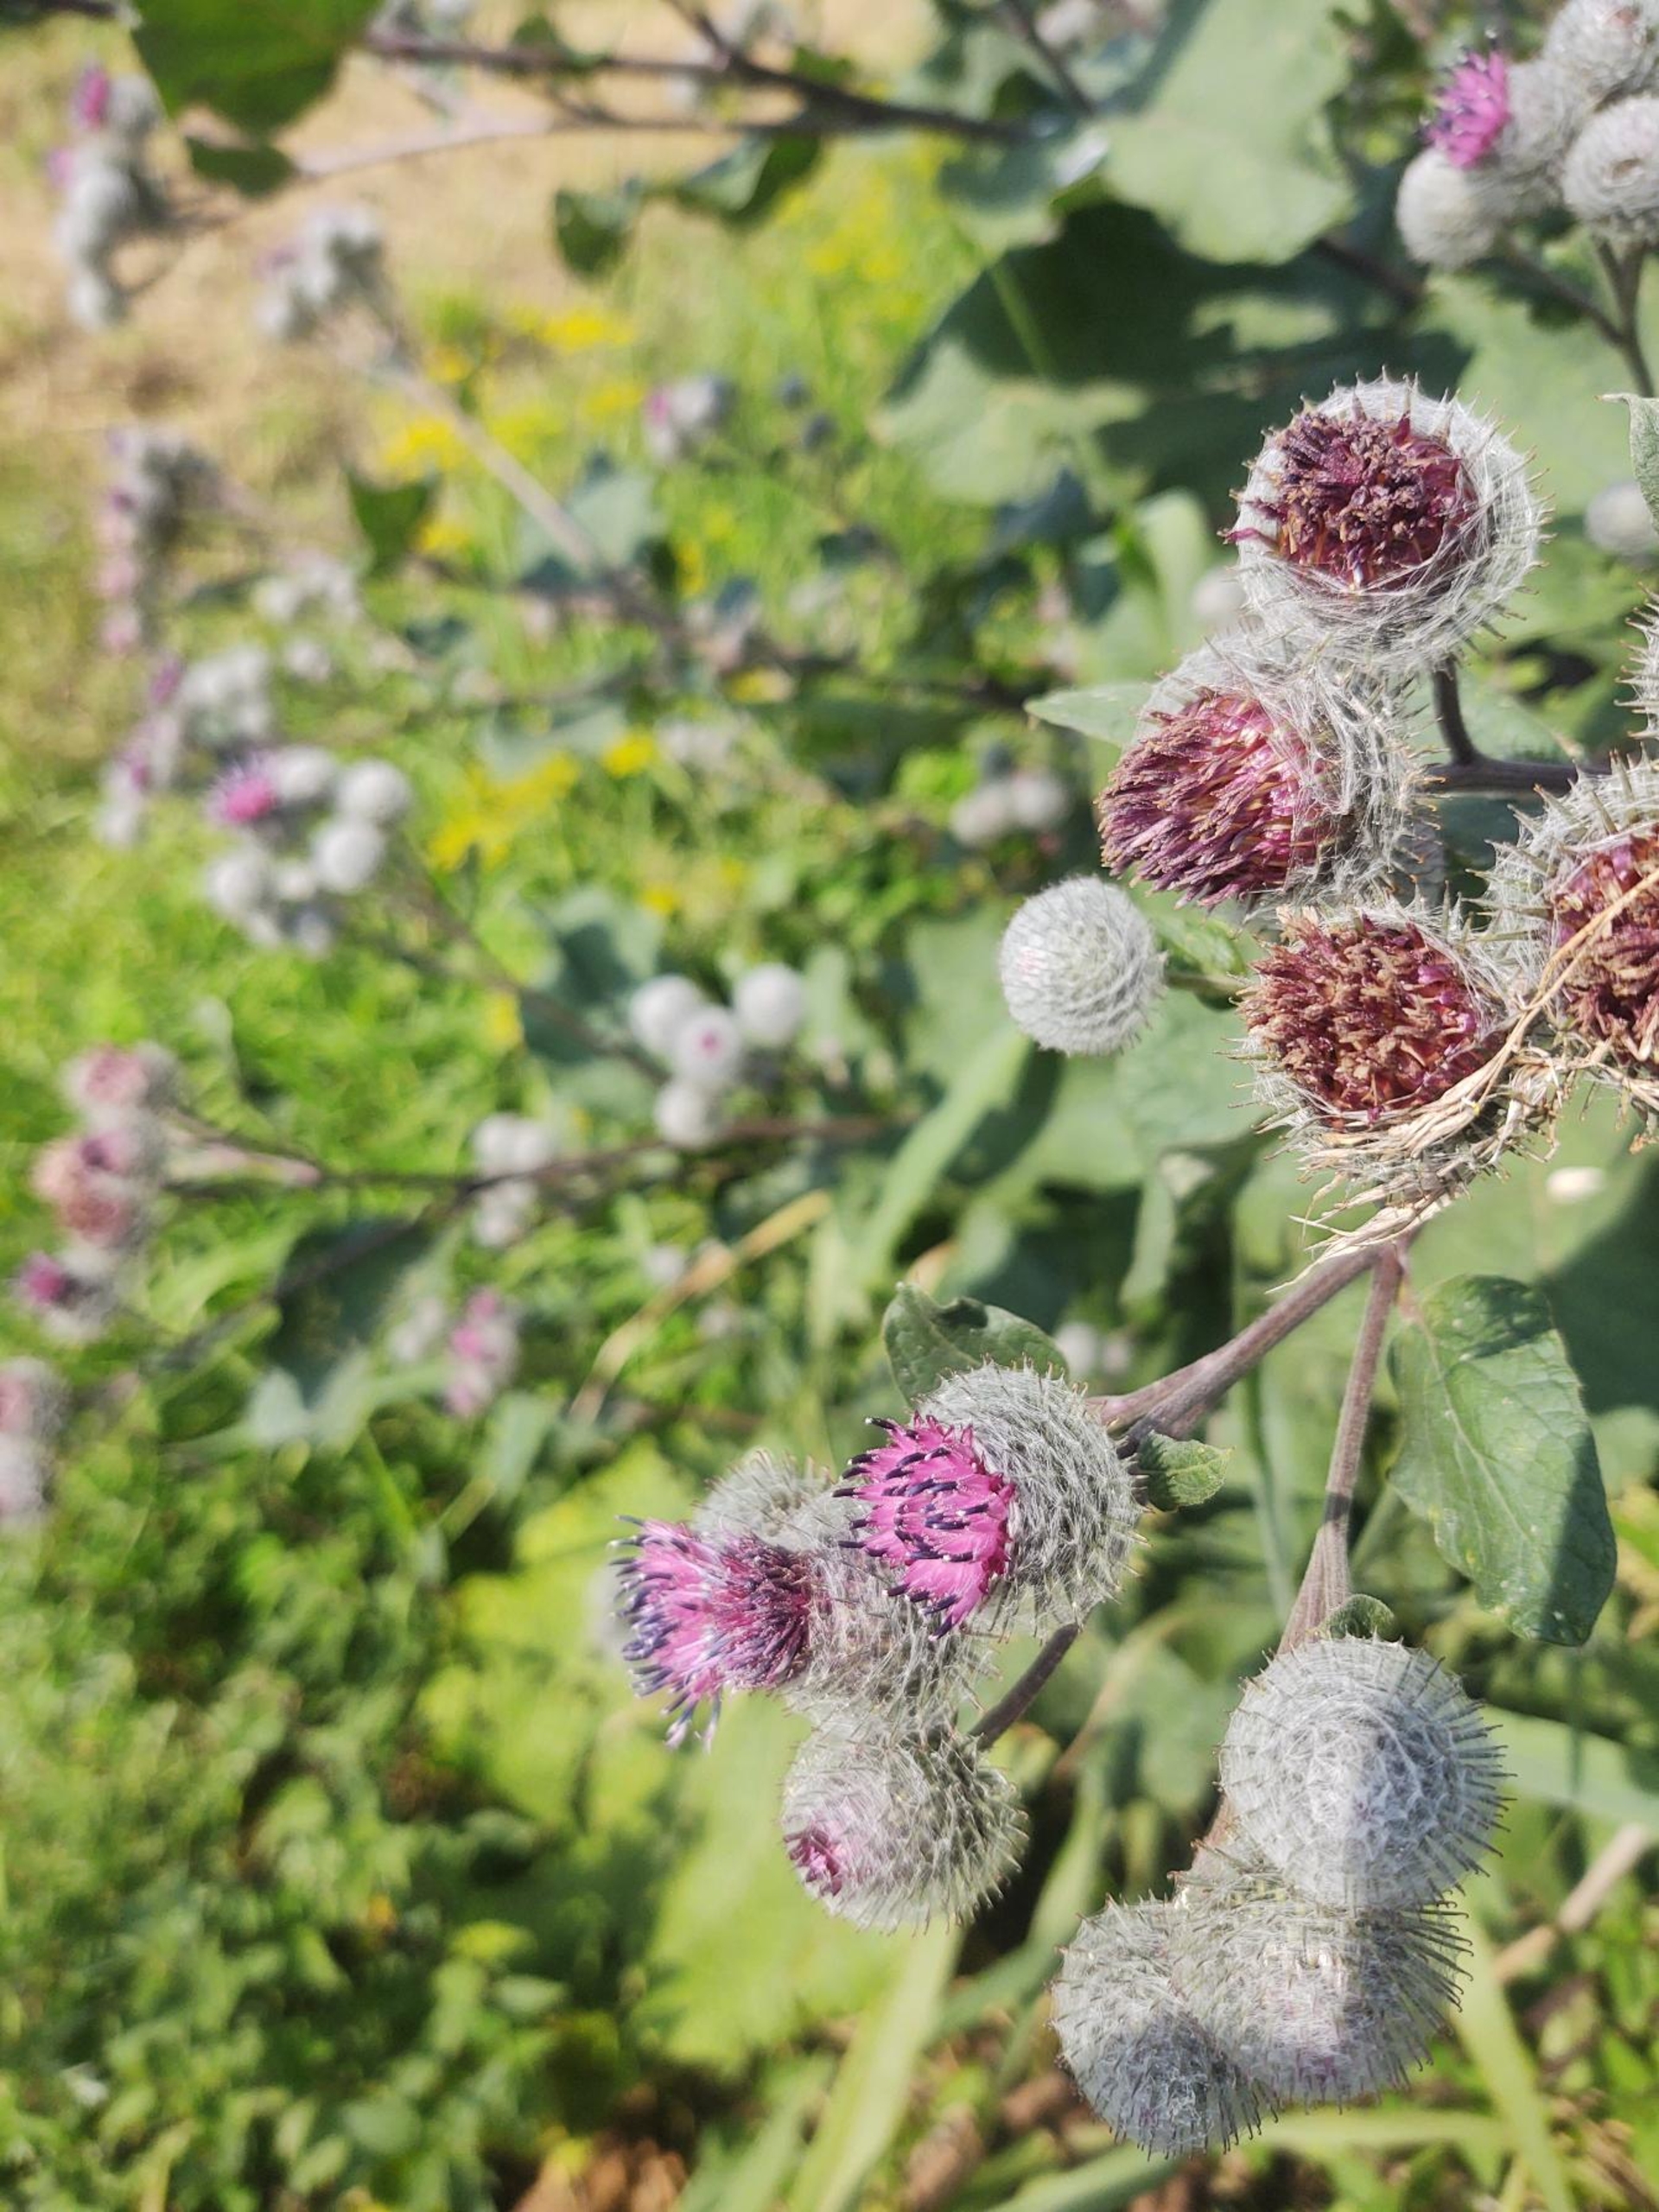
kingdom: Plantae
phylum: Tracheophyta
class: Magnoliopsida
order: Asterales
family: Asteraceae
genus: Arctium
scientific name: Arctium tomentosum
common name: Filtet burre
